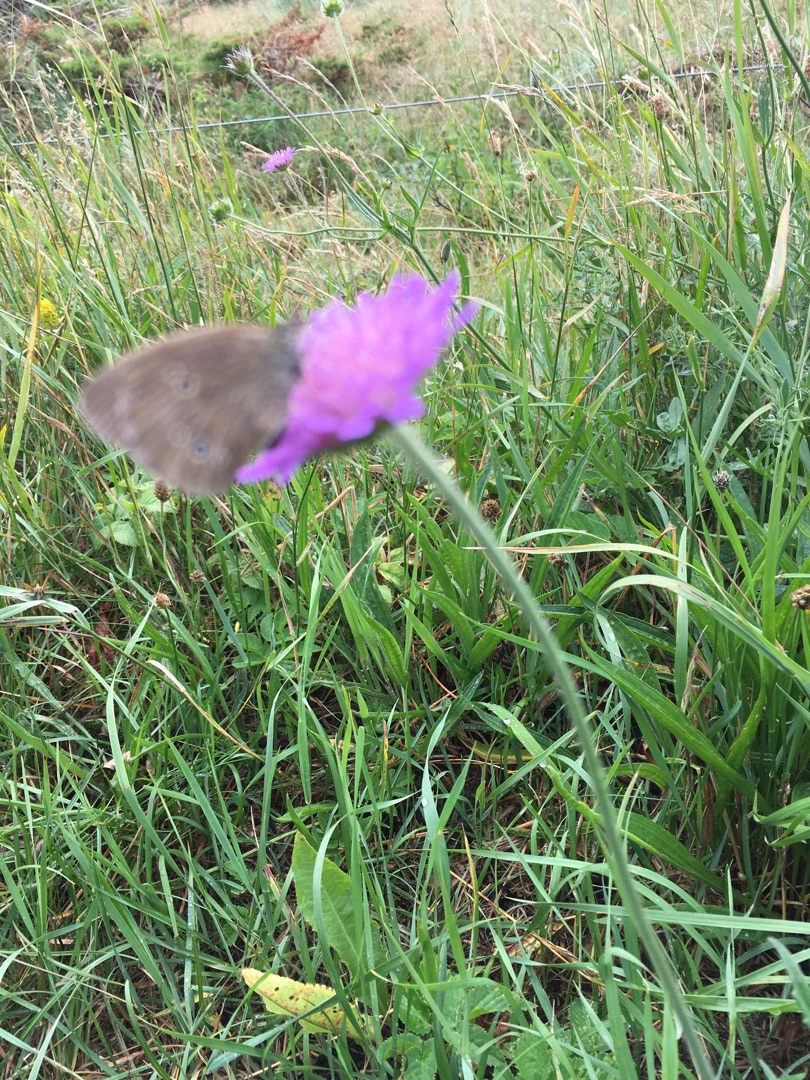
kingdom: Animalia
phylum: Arthropoda
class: Insecta
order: Lepidoptera
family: Nymphalidae
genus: Aphantopus
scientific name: Aphantopus hyperantus
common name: Engrandøje
